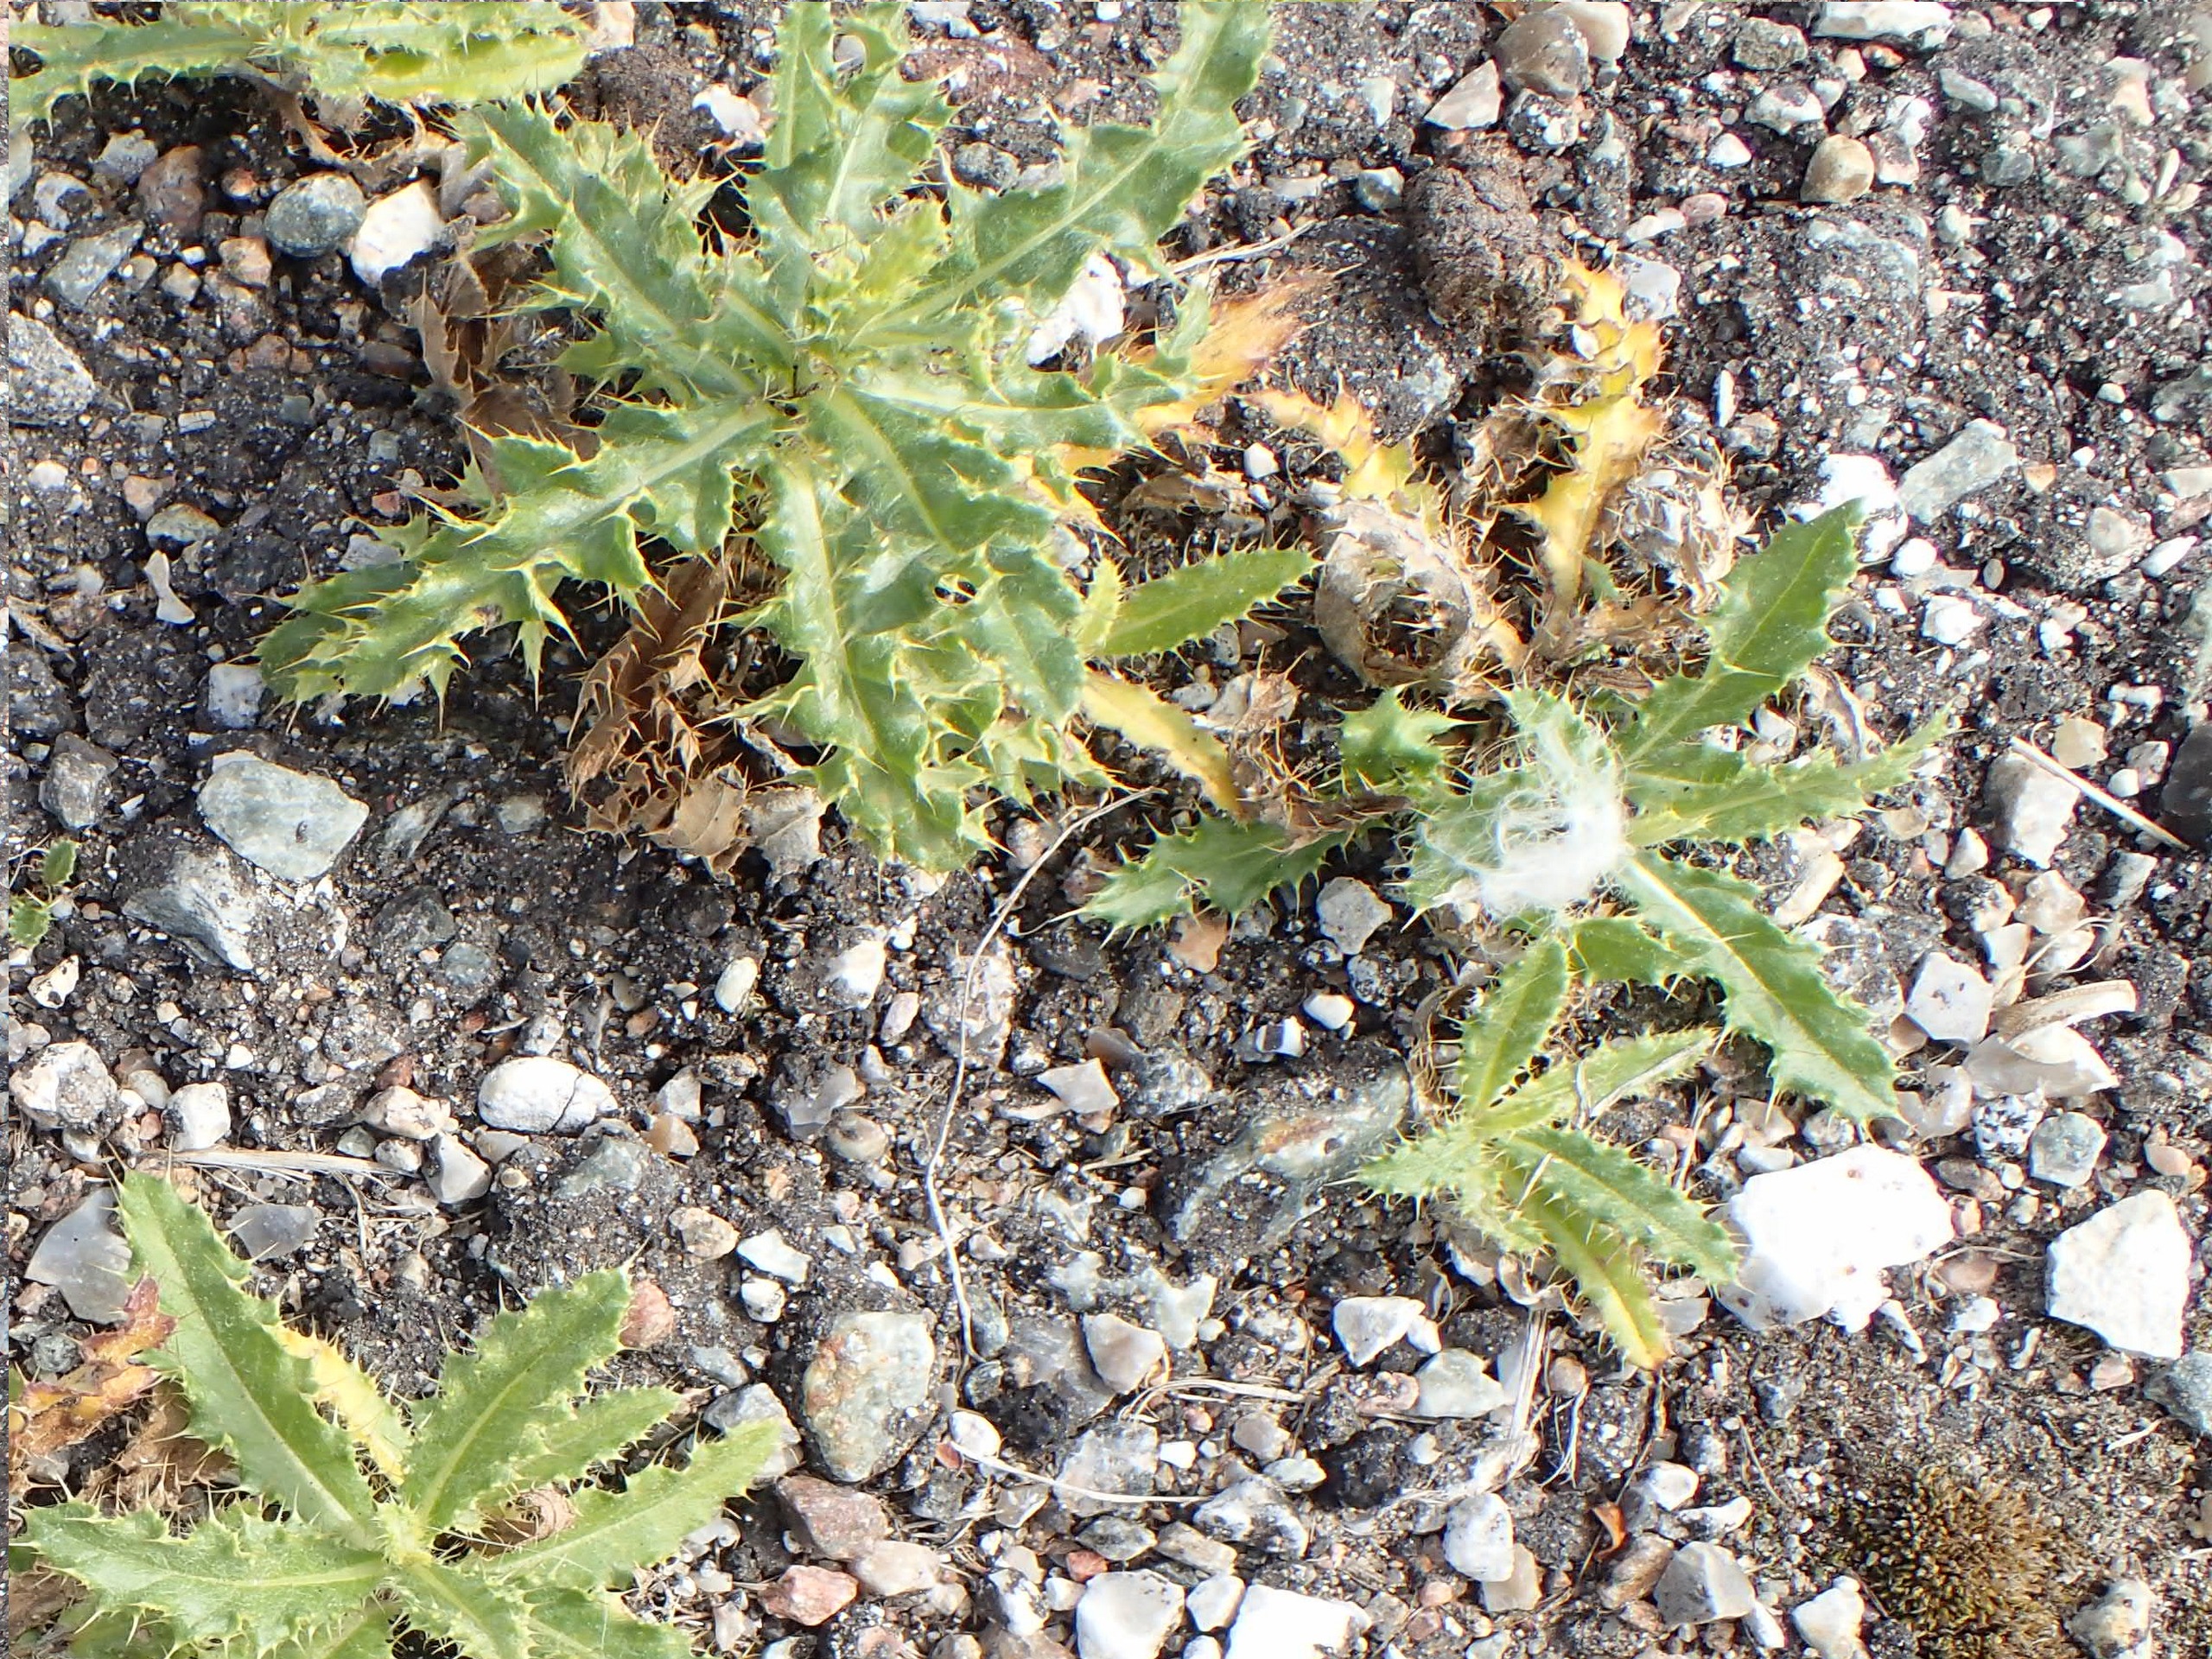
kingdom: Plantae
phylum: Tracheophyta
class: Magnoliopsida
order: Asterales
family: Asteraceae
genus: Carlina
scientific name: Carlina vulgaris
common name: Bakketidsel
